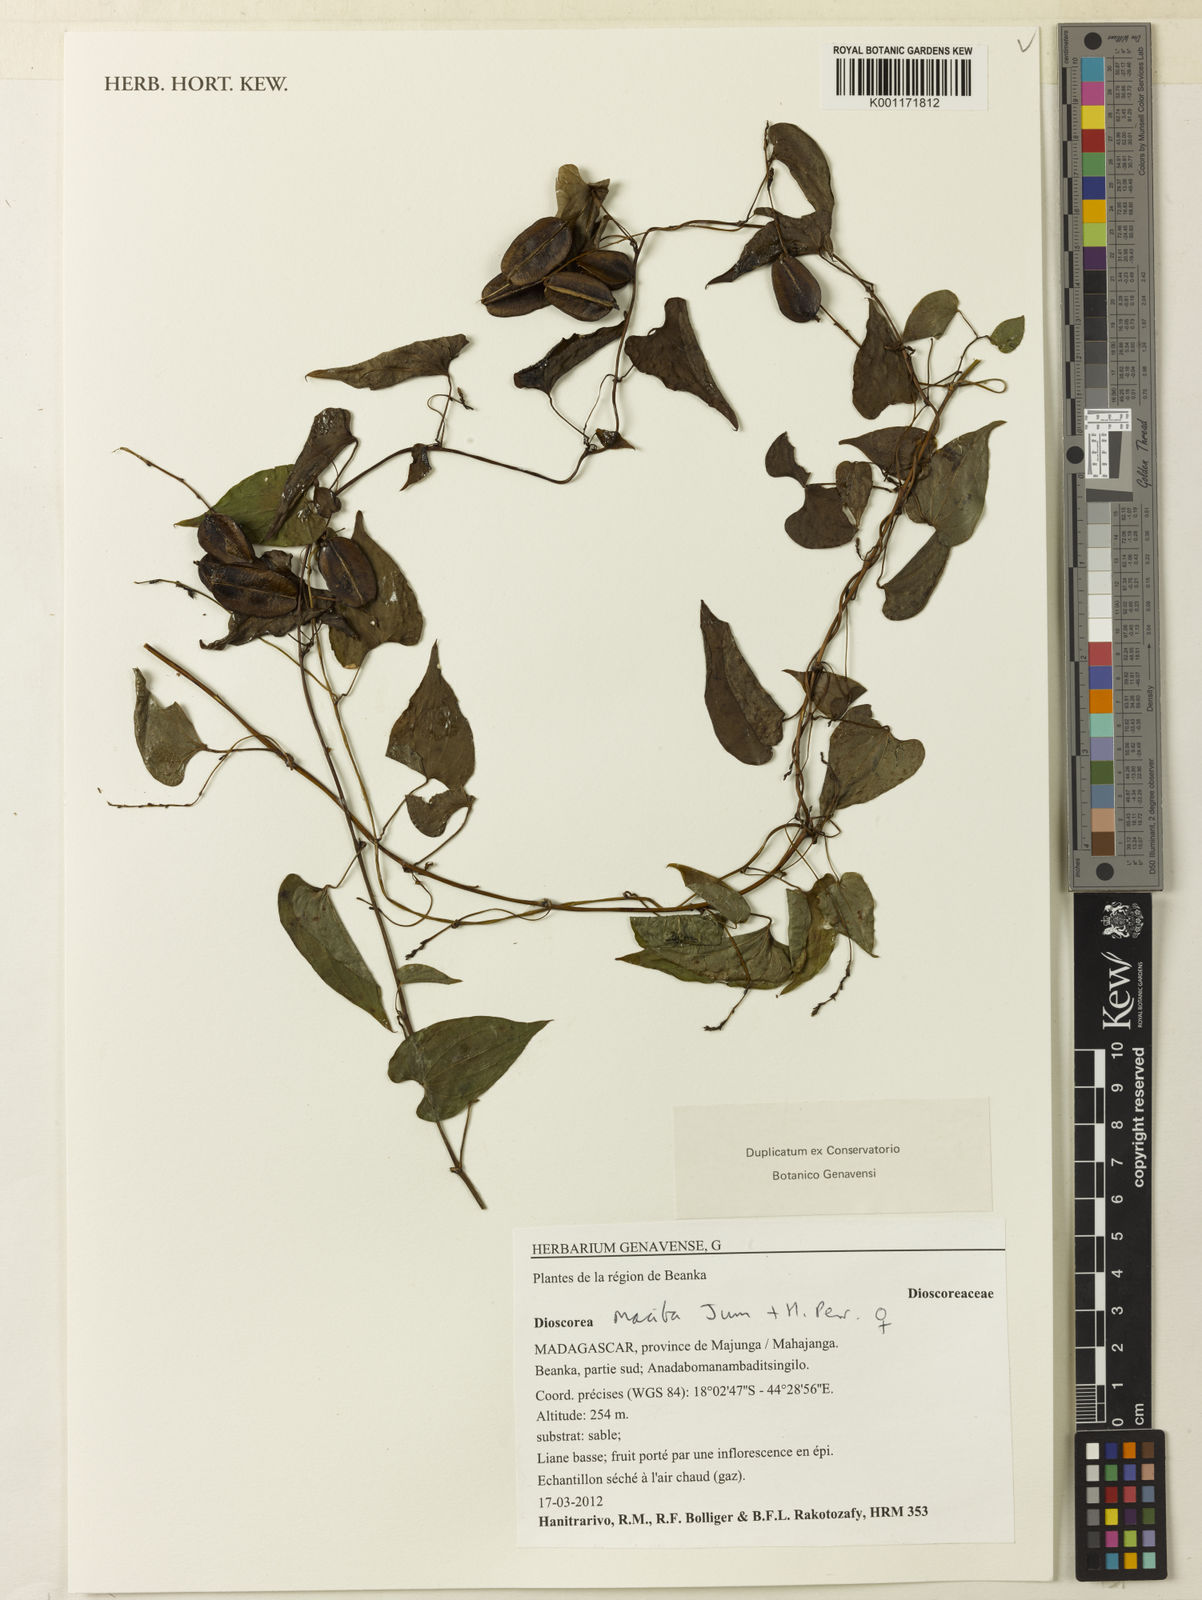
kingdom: Plantae
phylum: Tracheophyta
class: Liliopsida
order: Dioscoreales
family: Dioscoreaceae
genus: Dioscorea
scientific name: Dioscorea maciba
